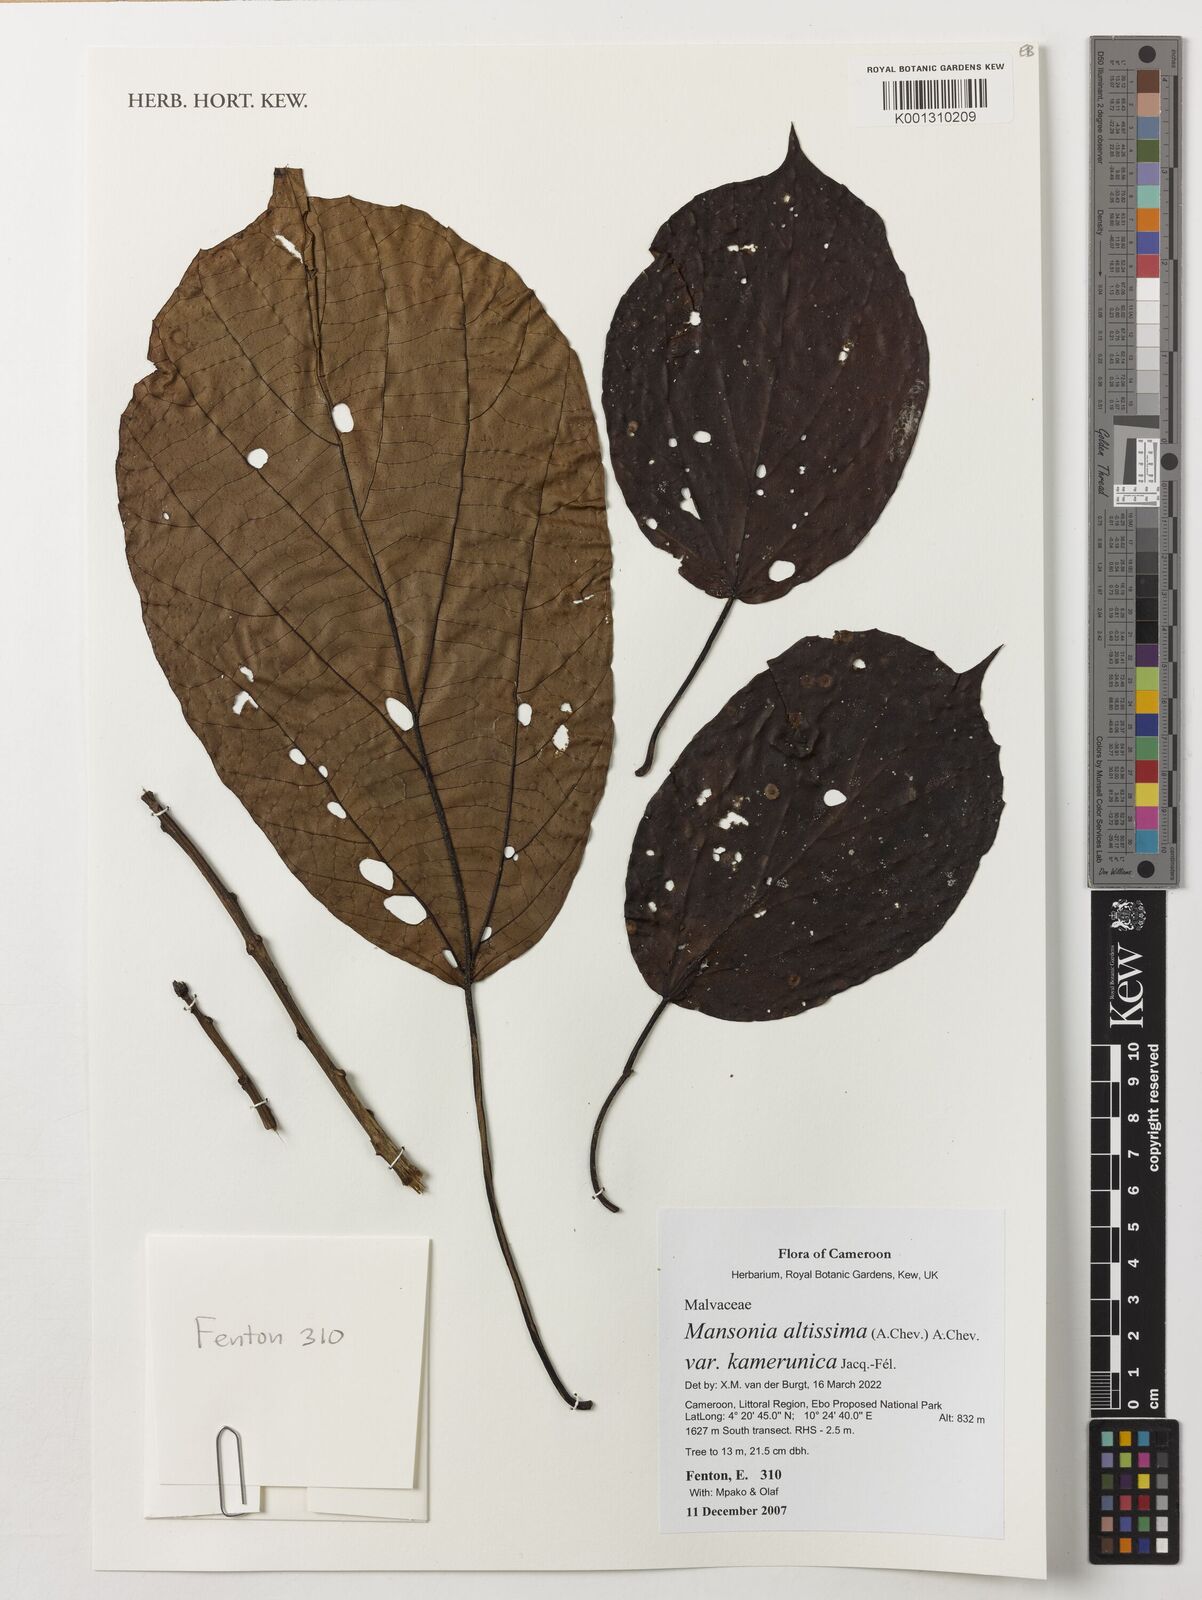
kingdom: Plantae
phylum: Tracheophyta
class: Magnoliopsida
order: Malvales
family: Malvaceae
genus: Mansonia
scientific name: Mansonia altissima
